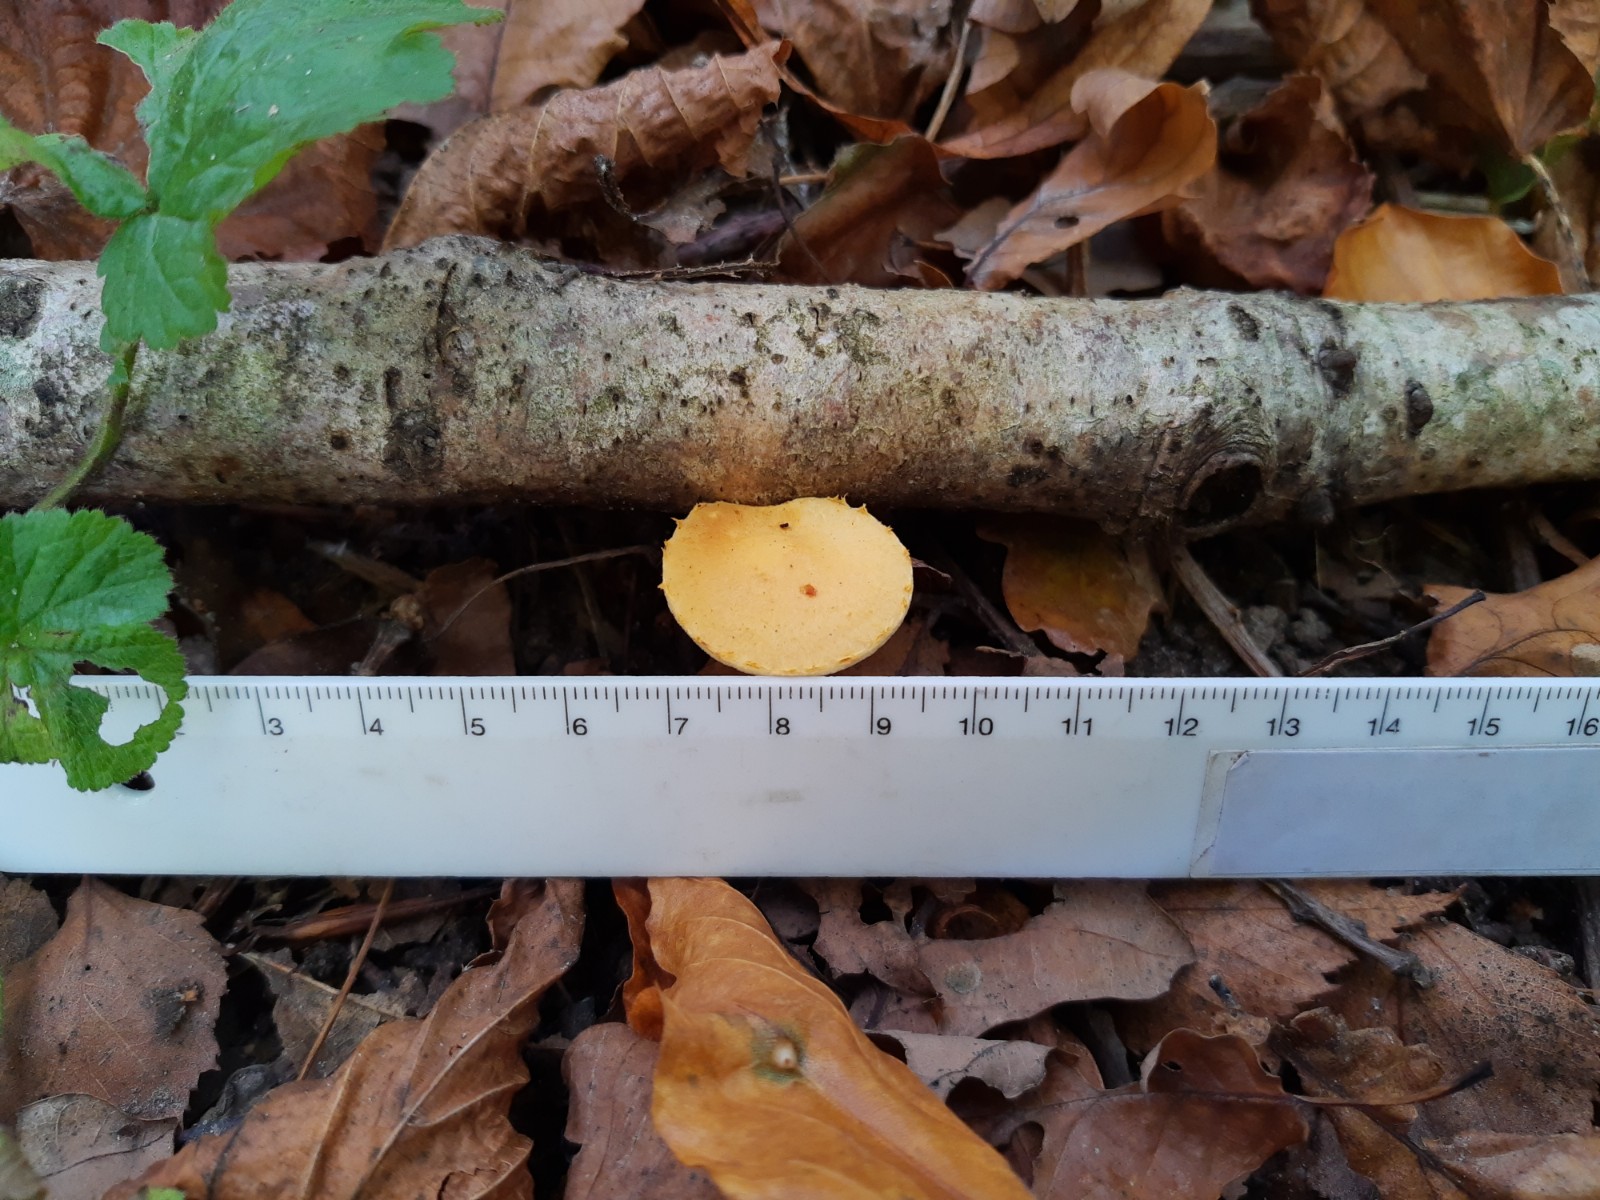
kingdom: Fungi
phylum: Basidiomycota
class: Agaricomycetes
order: Agaricales
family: Strophariaceae
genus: Pholiota
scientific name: Pholiota tuberculosa
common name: finskællet skælhat
